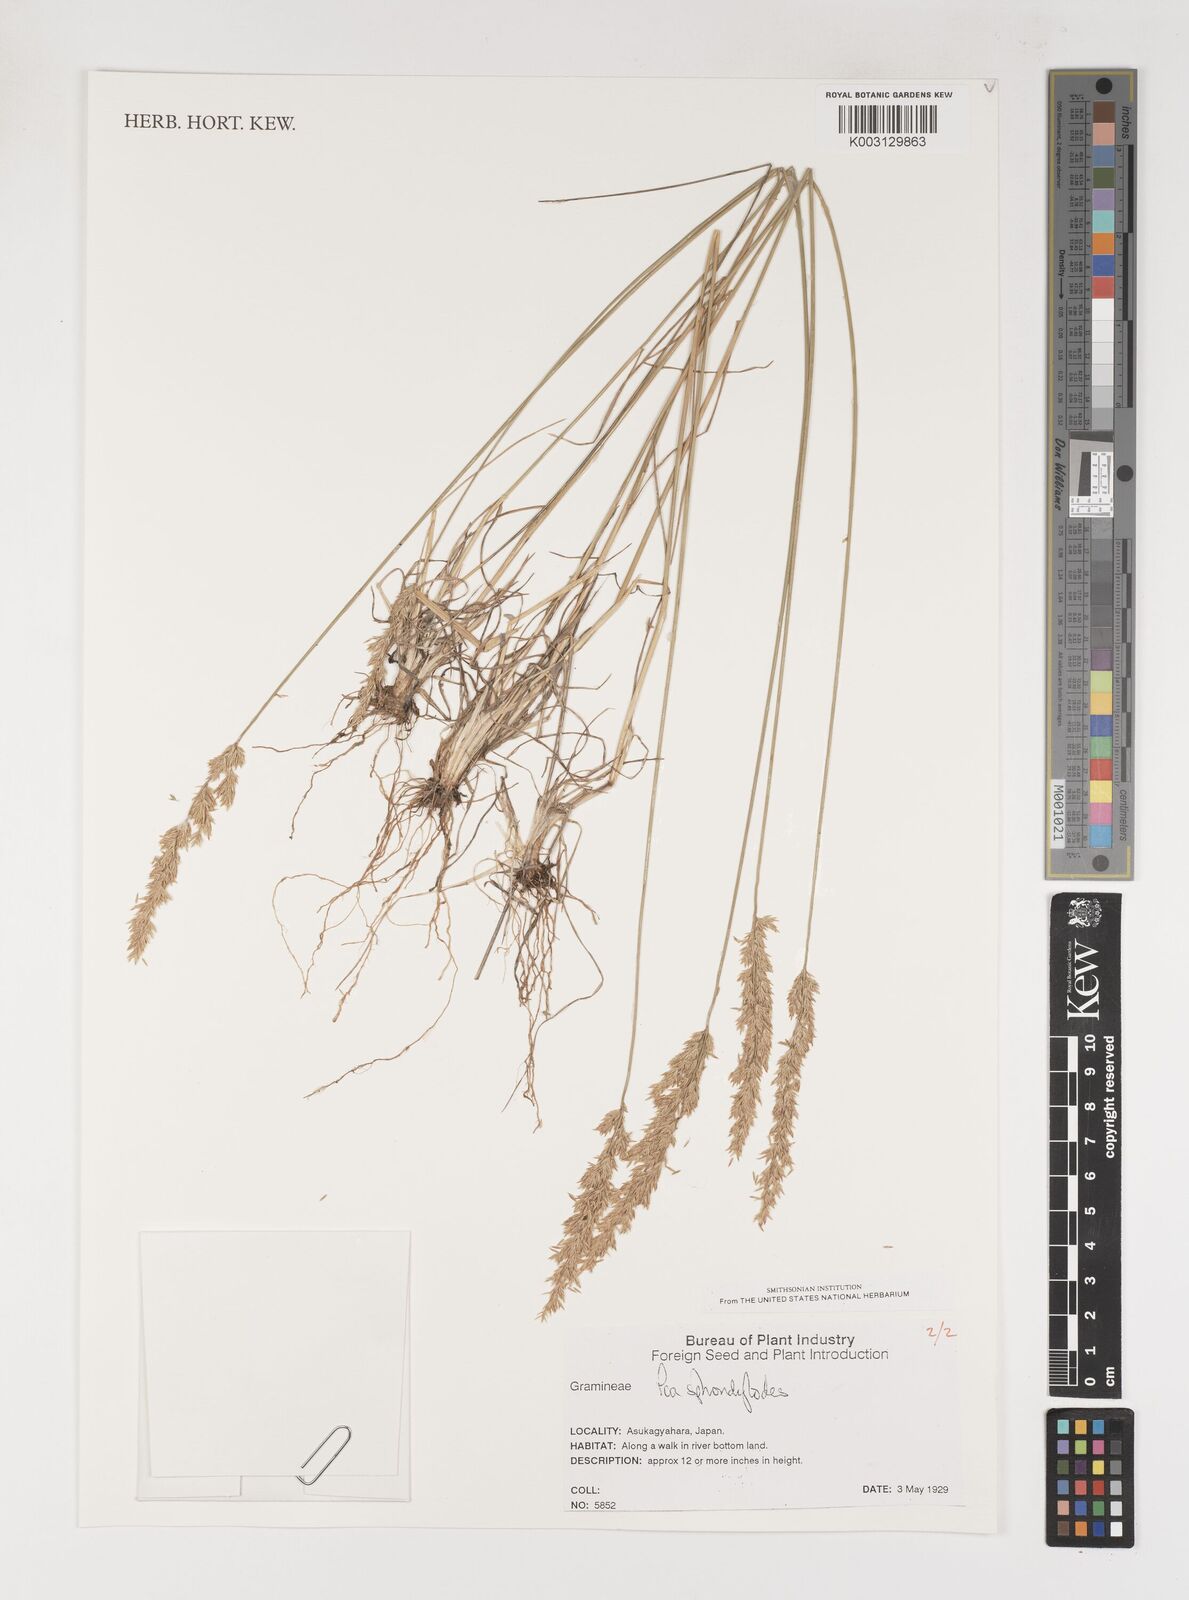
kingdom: Plantae
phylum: Tracheophyta
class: Liliopsida
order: Poales
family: Poaceae
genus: Poa
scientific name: Poa sphondylodes
